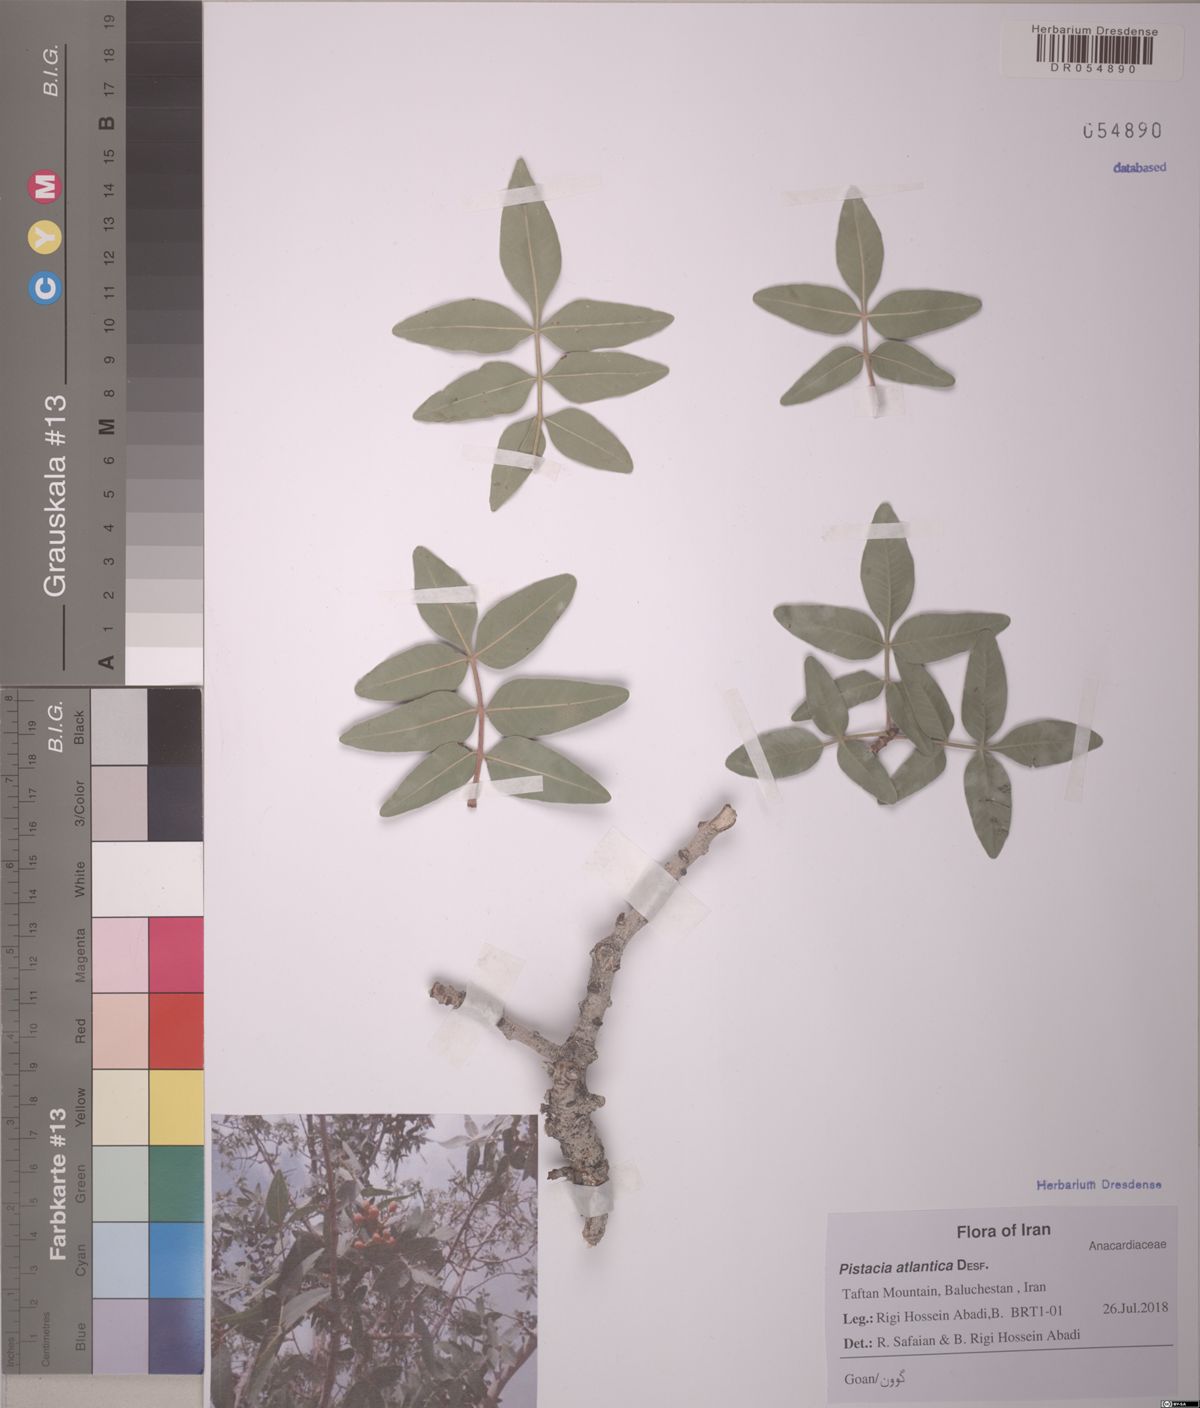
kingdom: Plantae
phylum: Tracheophyta
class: Magnoliopsida
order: Sapindales
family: Anacardiaceae
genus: Pistacia
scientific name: Pistacia atlantica
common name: Mt. atlas mastic tree
